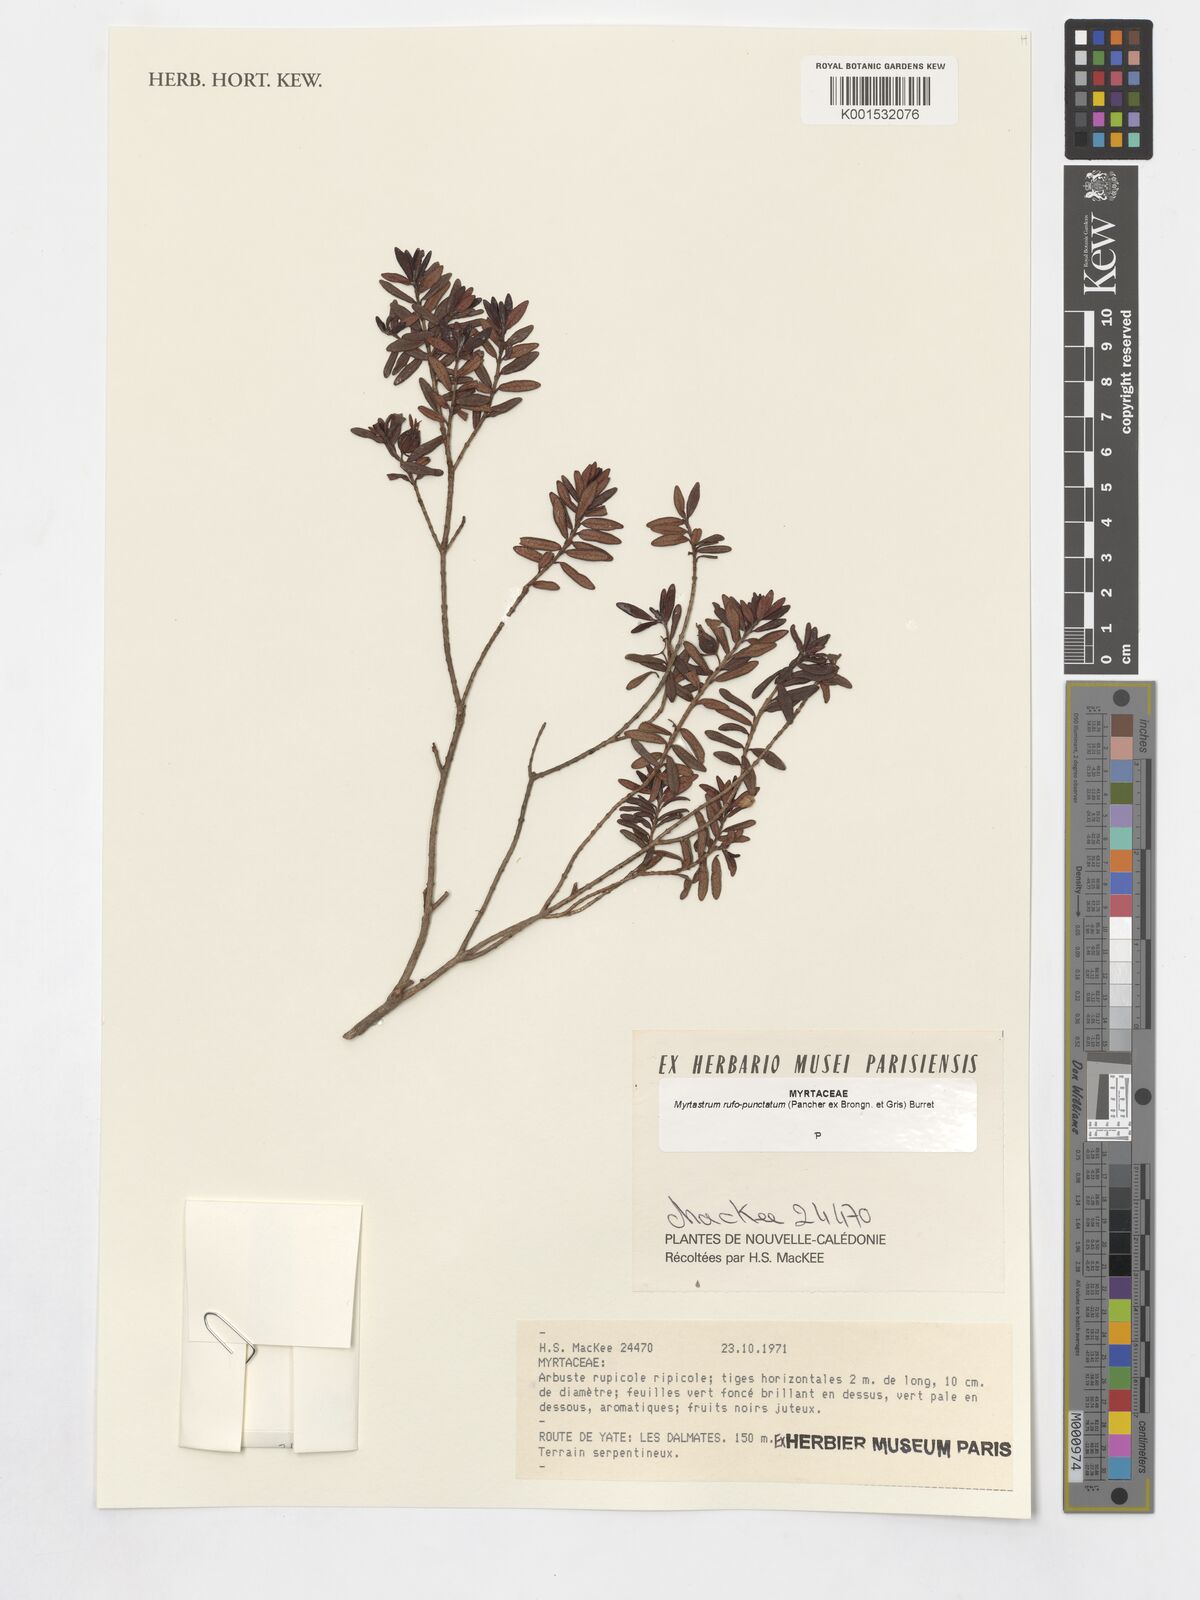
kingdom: Plantae
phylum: Tracheophyta
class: Magnoliopsida
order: Myrtales
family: Myrtaceae
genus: Myrtastrum
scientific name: Myrtastrum rufopunctatum
